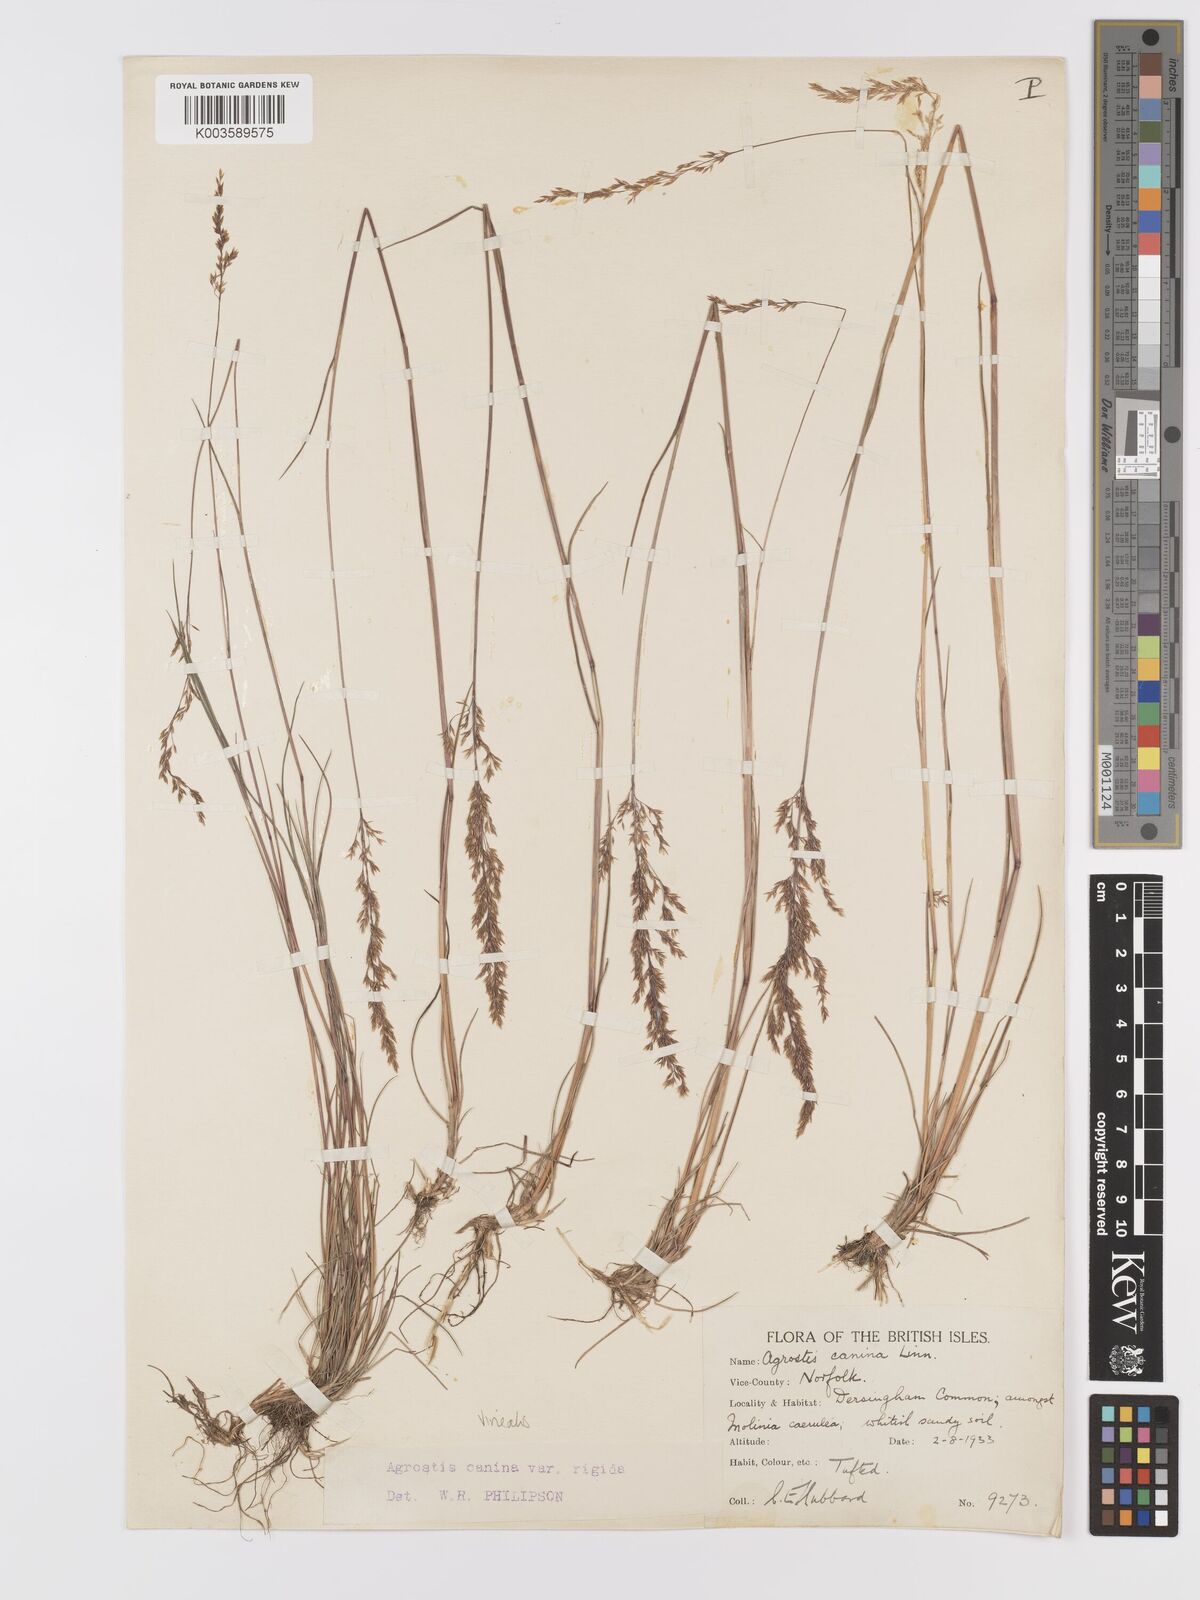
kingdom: Plantae
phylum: Tracheophyta
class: Liliopsida
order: Poales
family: Poaceae
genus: Agrostis
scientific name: Agrostis
